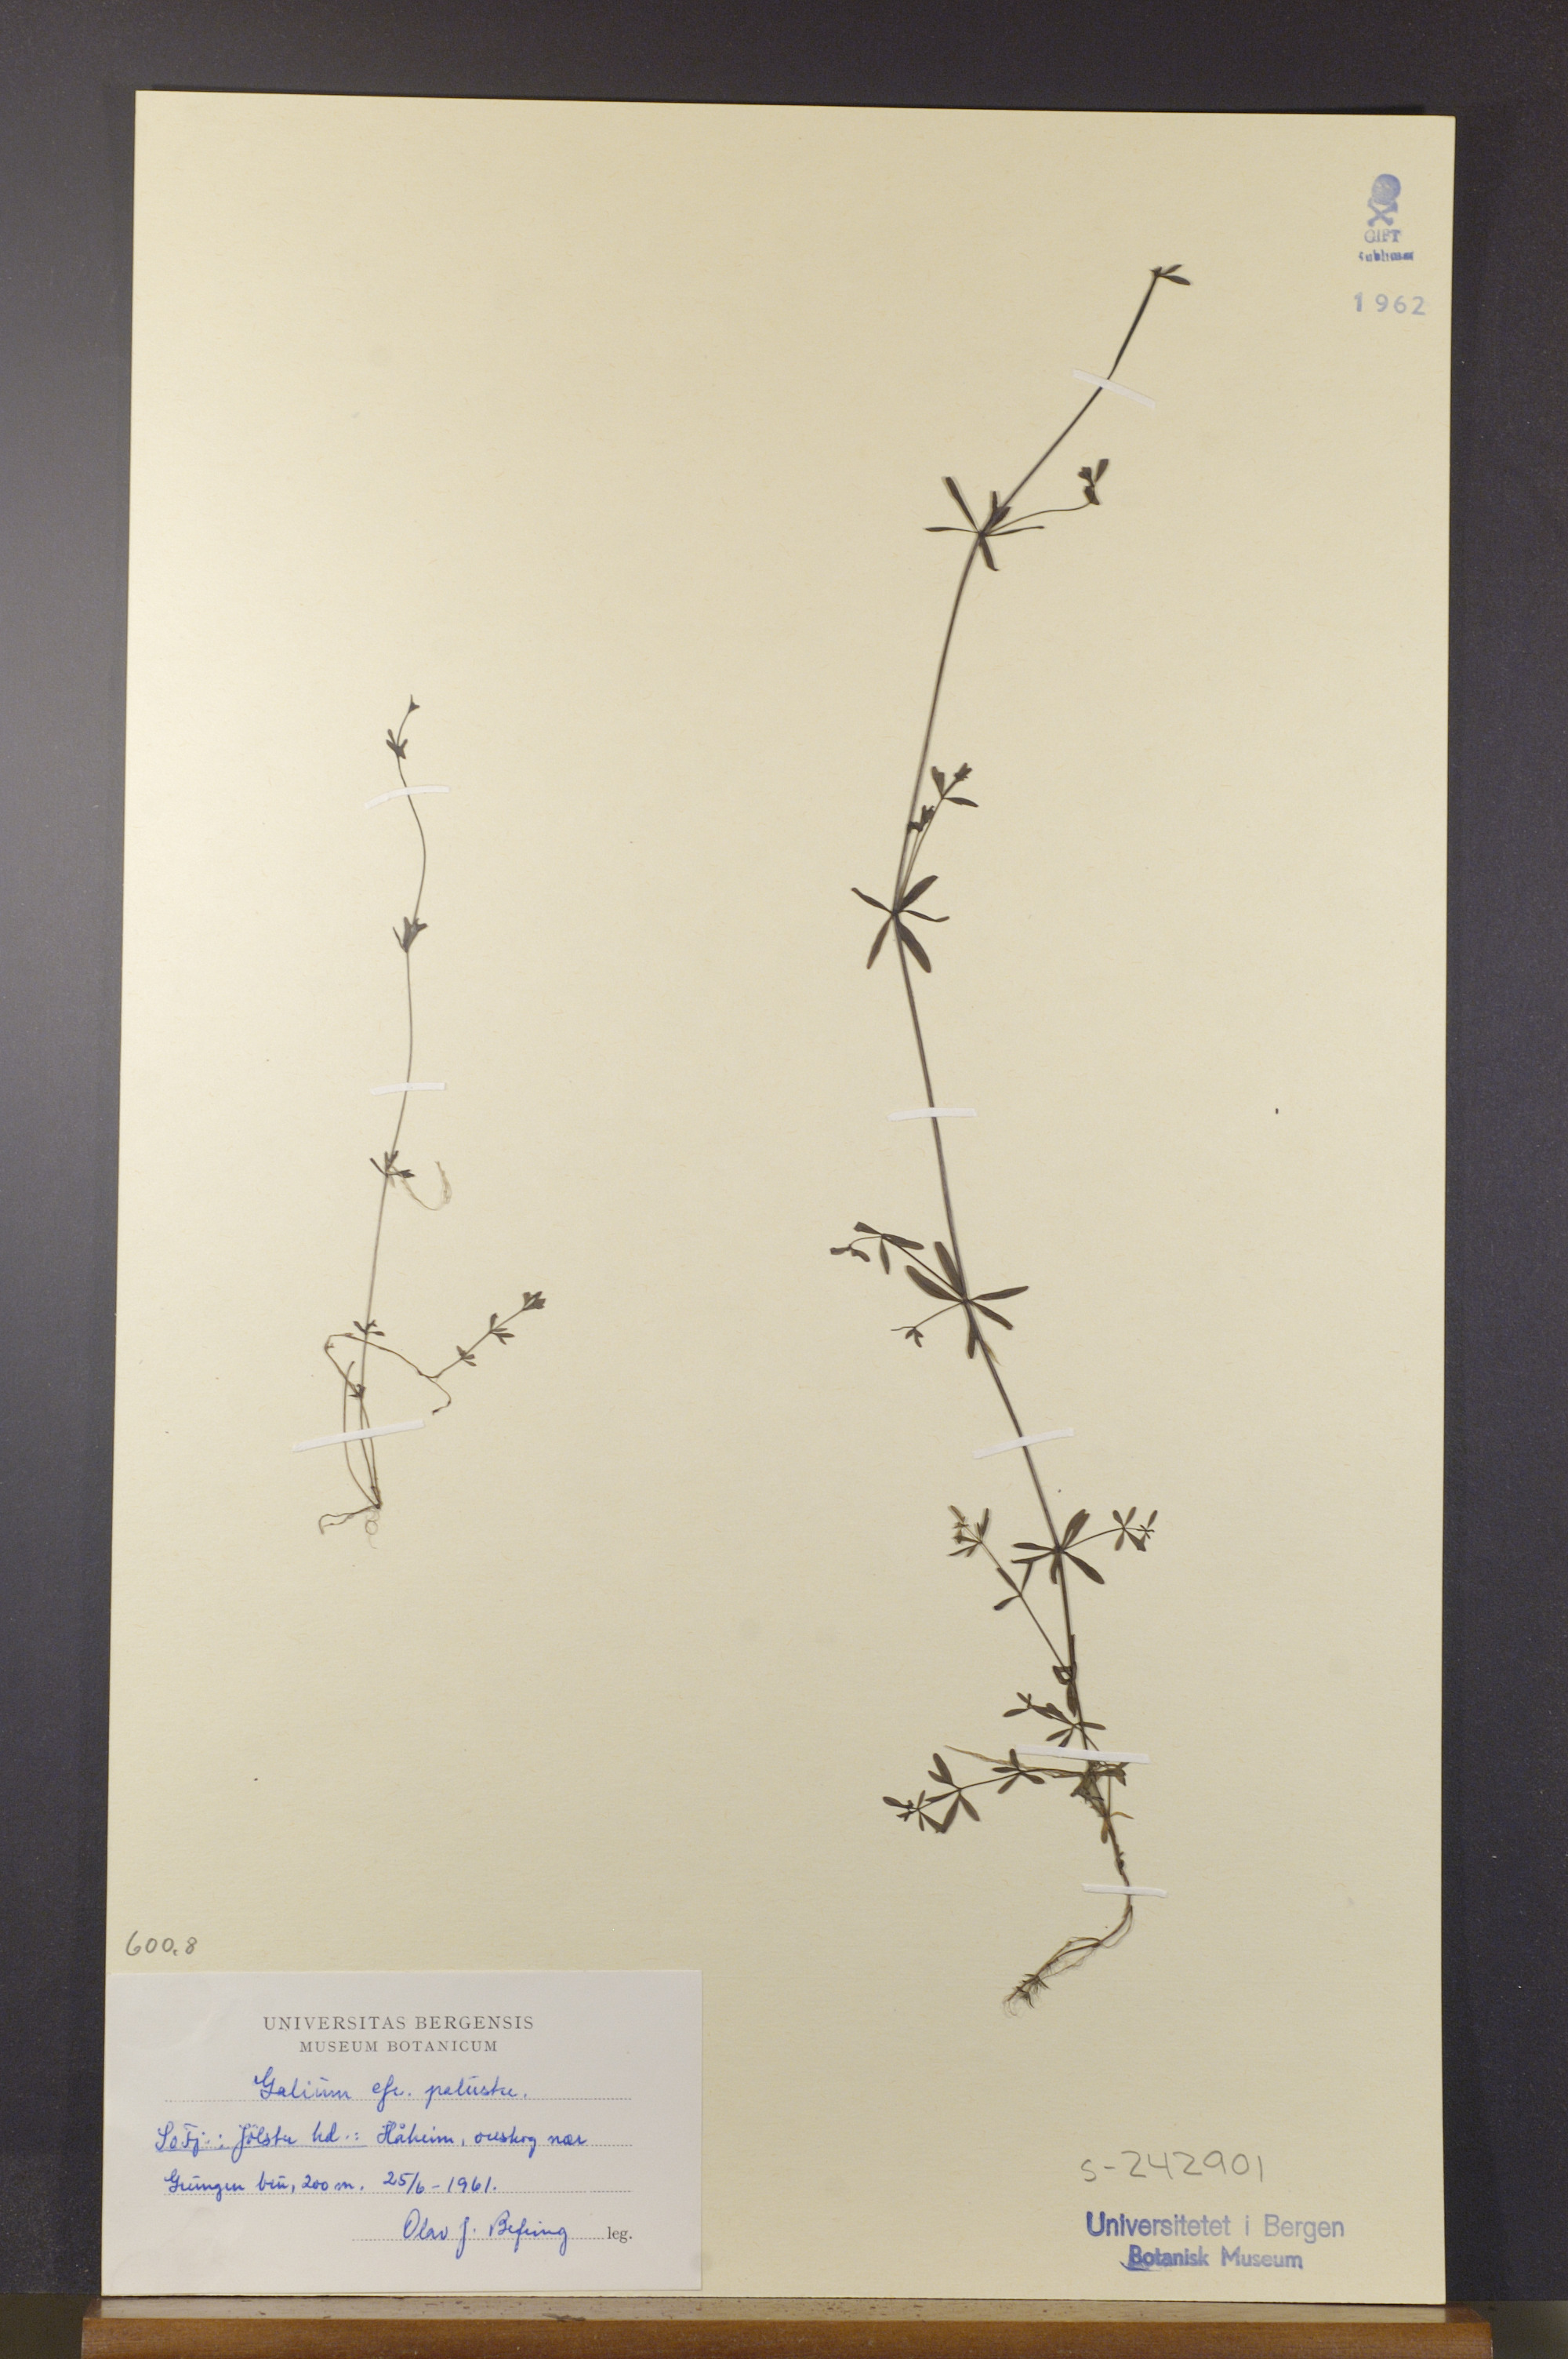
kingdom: Plantae
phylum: Tracheophyta
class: Magnoliopsida
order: Gentianales
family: Rubiaceae
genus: Galium
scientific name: Galium palustre
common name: Common marsh-bedstraw
